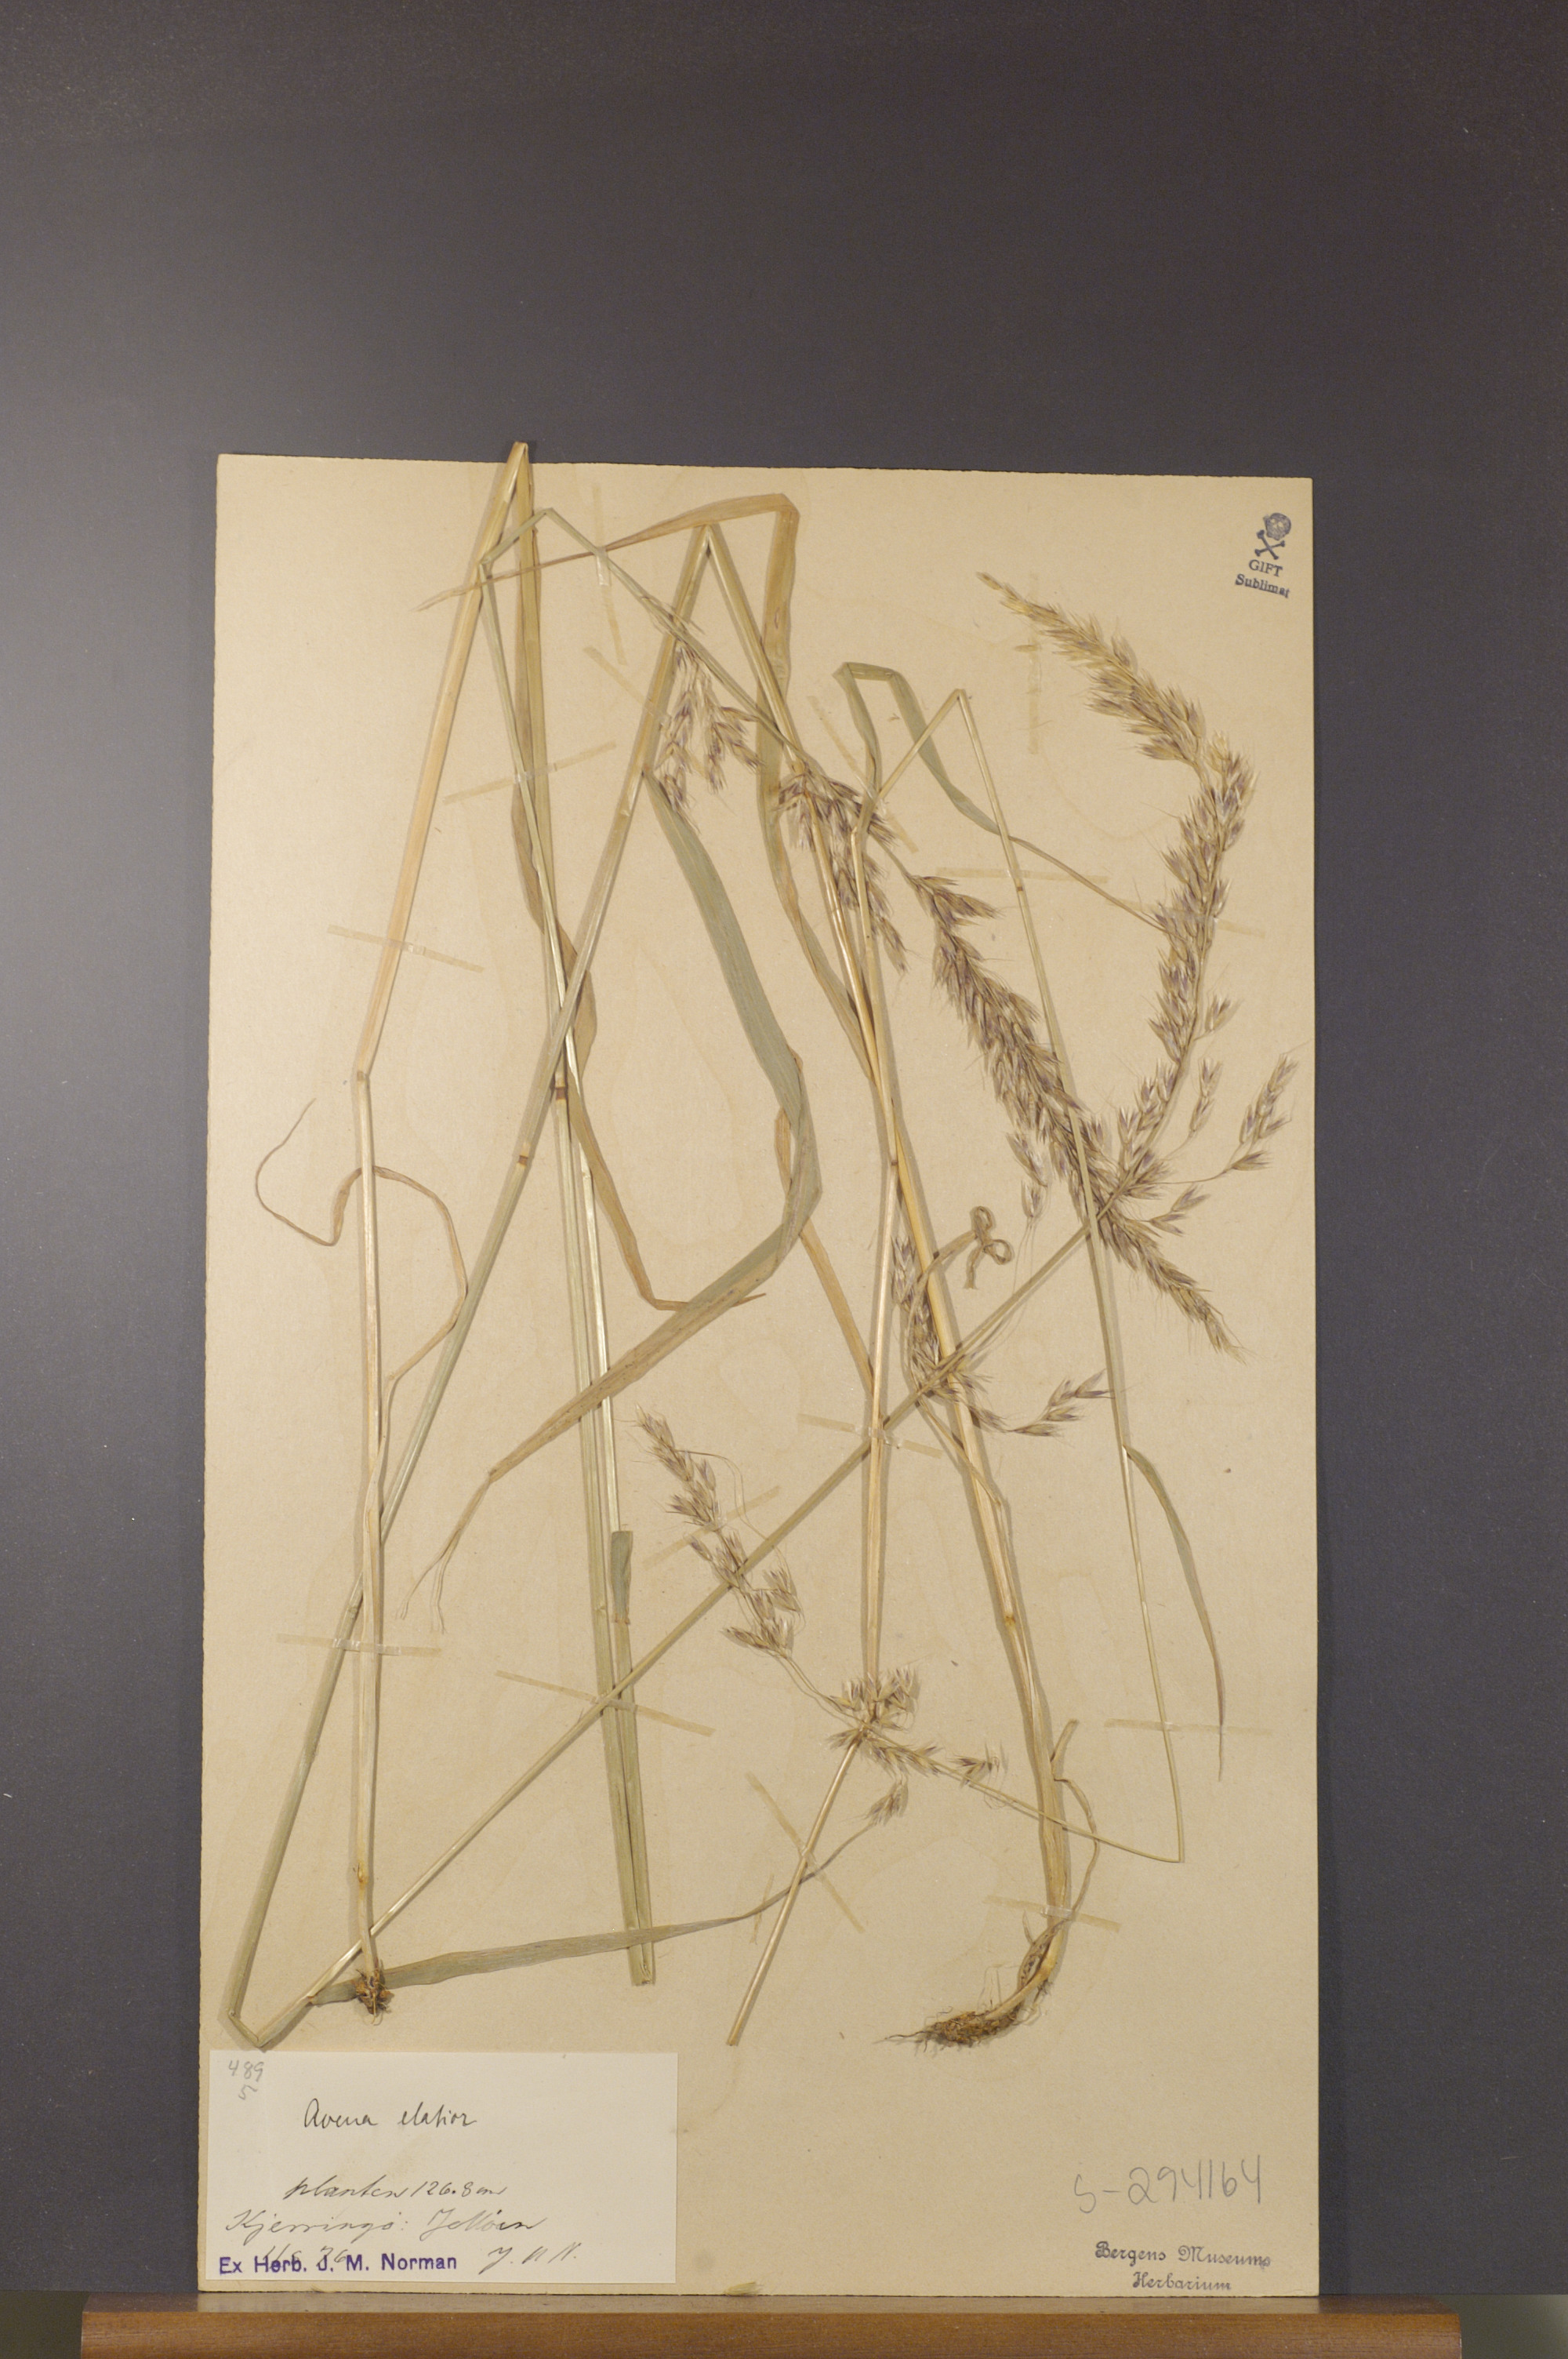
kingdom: Plantae
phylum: Tracheophyta
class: Liliopsida
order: Poales
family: Poaceae
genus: Arrhenatherum
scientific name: Arrhenatherum elatius
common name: Tall oatgrass
